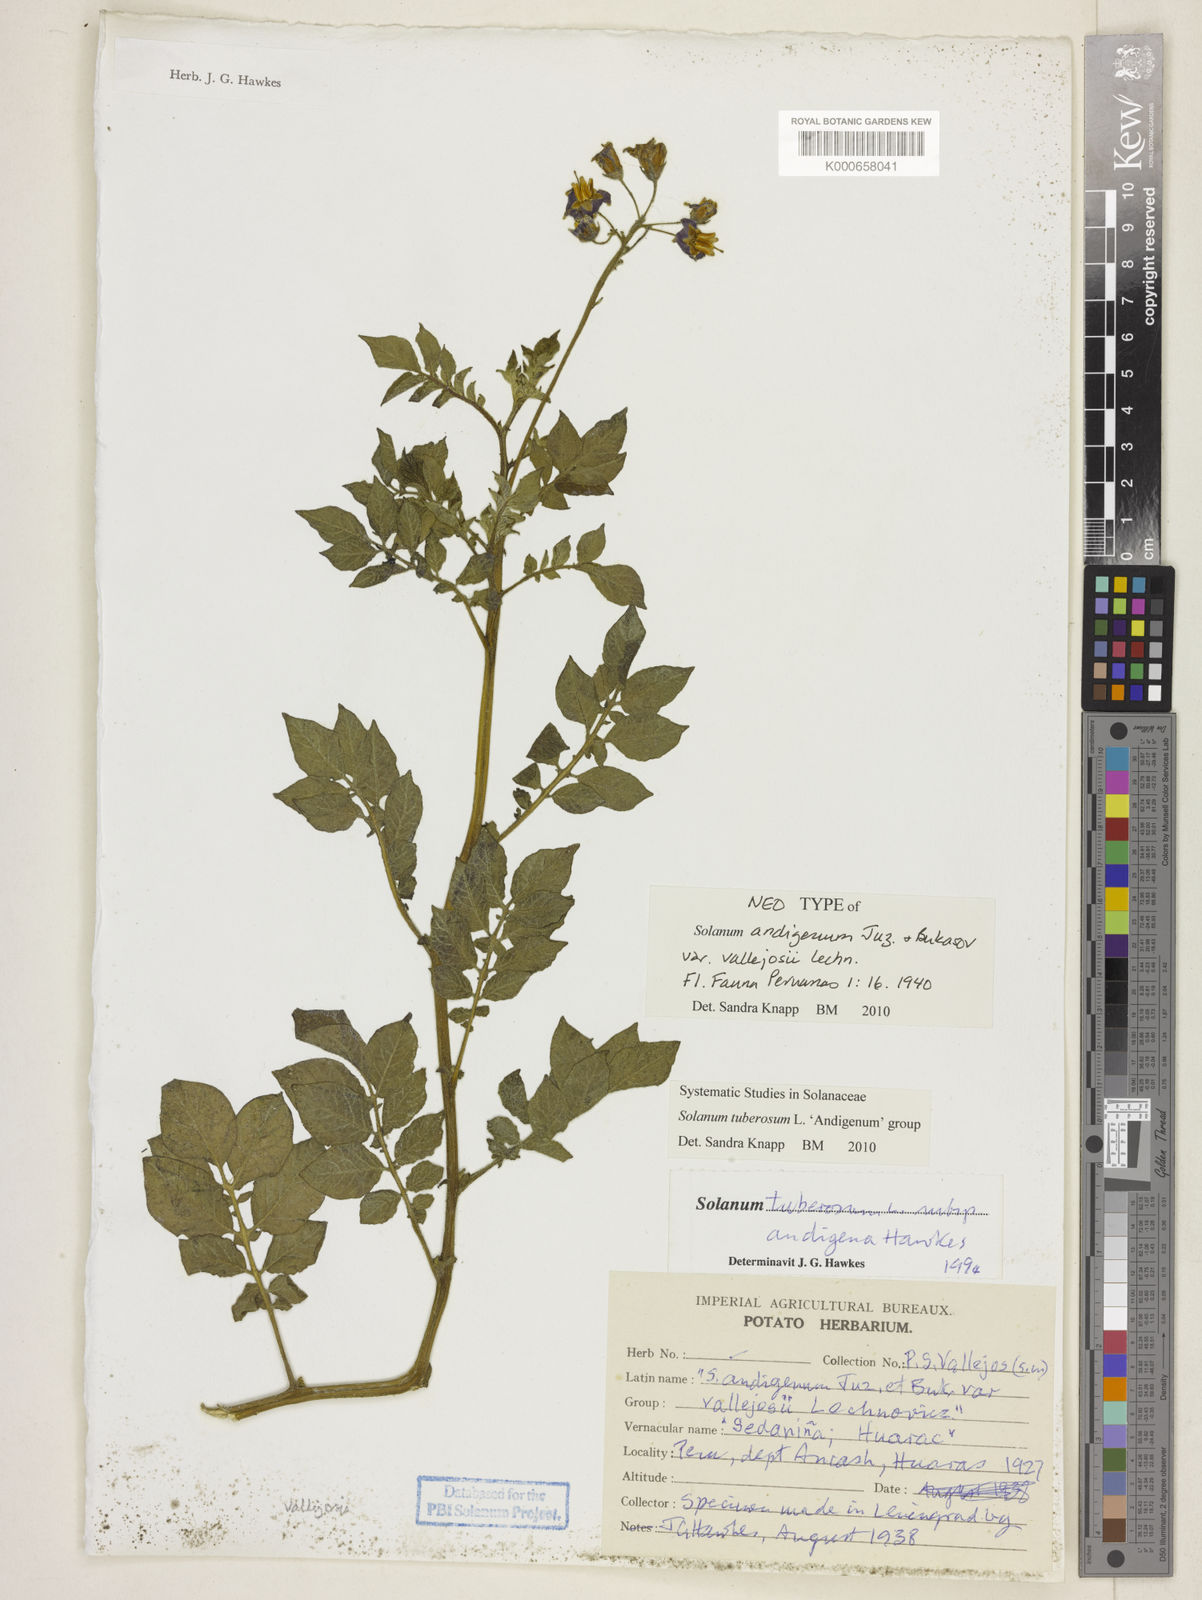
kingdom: Plantae
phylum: Tracheophyta
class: Magnoliopsida
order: Solanales
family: Solanaceae
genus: Solanum
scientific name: Solanum tuberosum
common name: Potato
